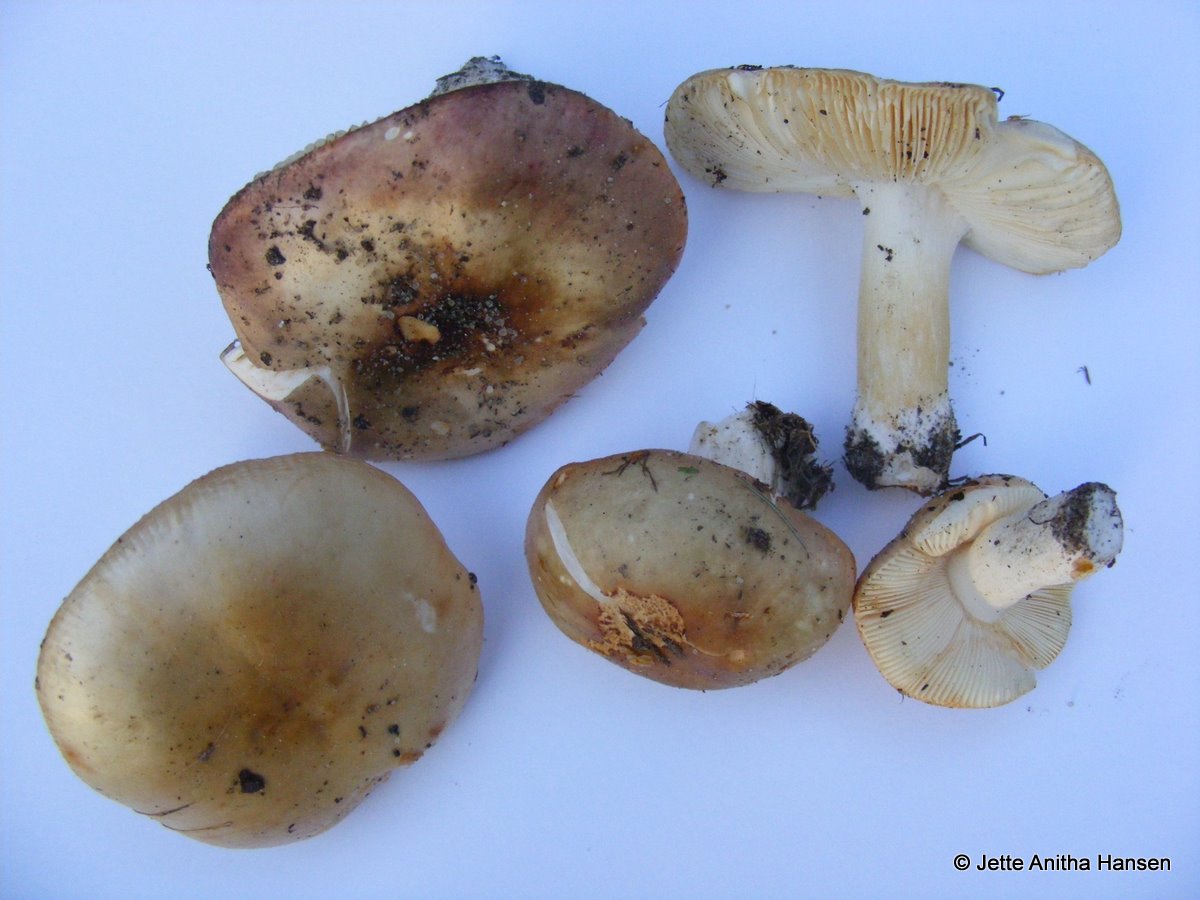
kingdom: Fungi
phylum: Basidiomycota
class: Agaricomycetes
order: Russulales
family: Russulaceae
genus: Russula
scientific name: Russula versicolor
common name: foranderlig skørhat
